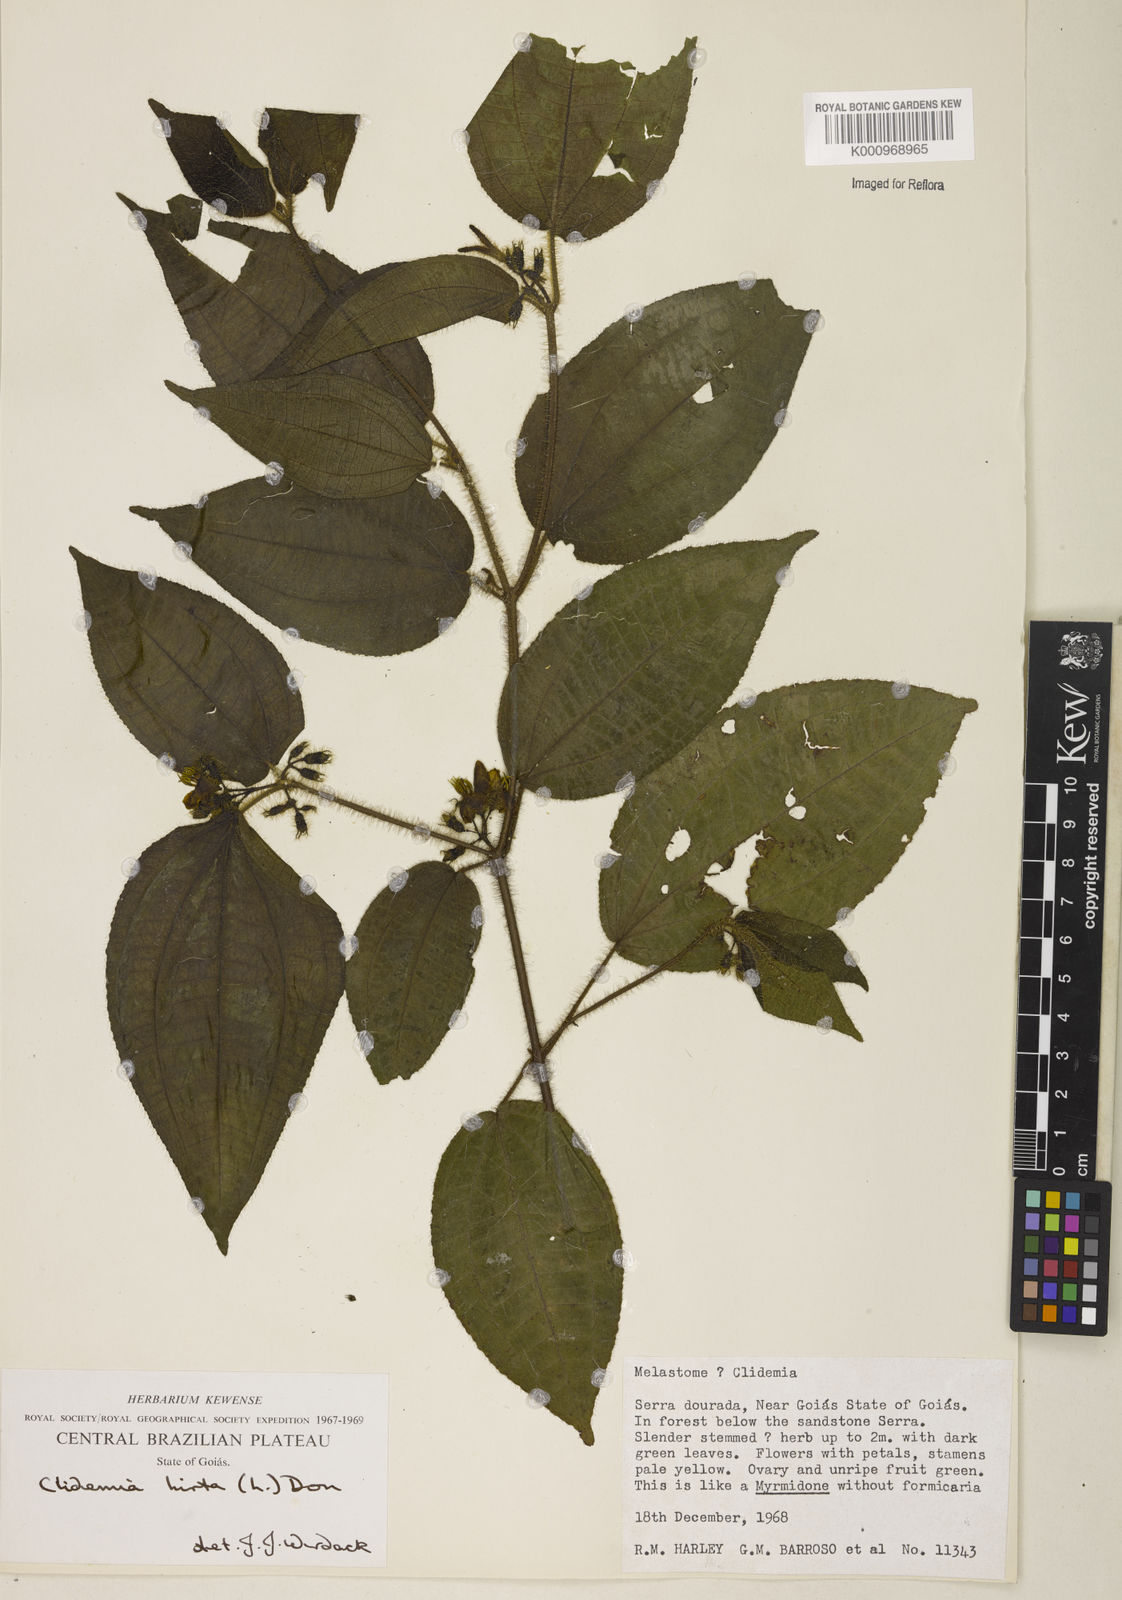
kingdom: Plantae
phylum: Tracheophyta
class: Magnoliopsida
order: Myrtales
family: Melastomataceae
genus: Miconia
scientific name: Miconia crenata
